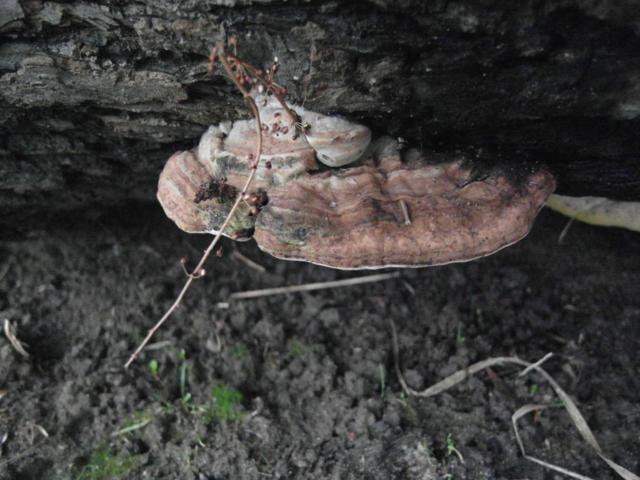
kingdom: Fungi
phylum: Basidiomycota
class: Agaricomycetes
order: Polyporales
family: Polyporaceae
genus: Ganoderma
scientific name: Ganoderma applanatum
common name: flad lakporesvamp
